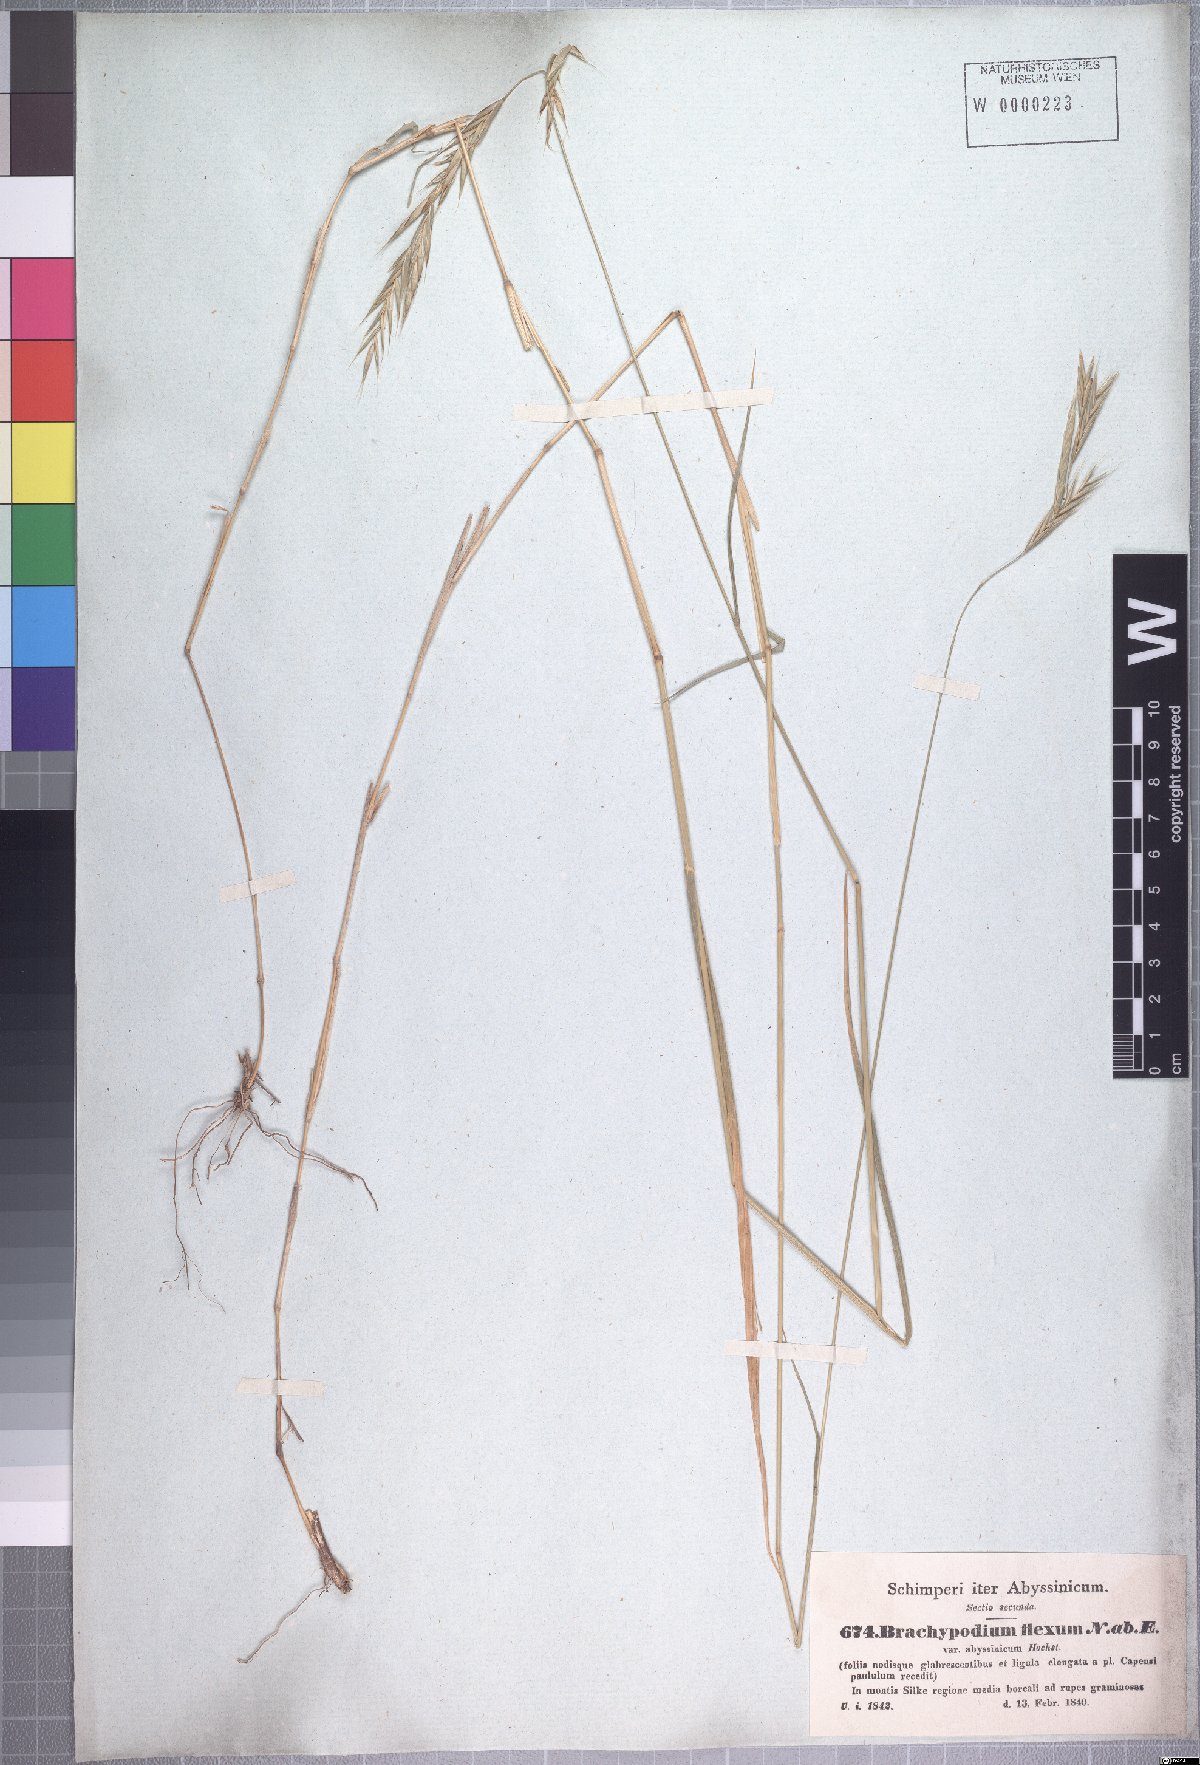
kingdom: Plantae
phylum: Tracheophyta
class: Liliopsida
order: Poales
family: Poaceae
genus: Brachypodium
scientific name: Brachypodium flexum
